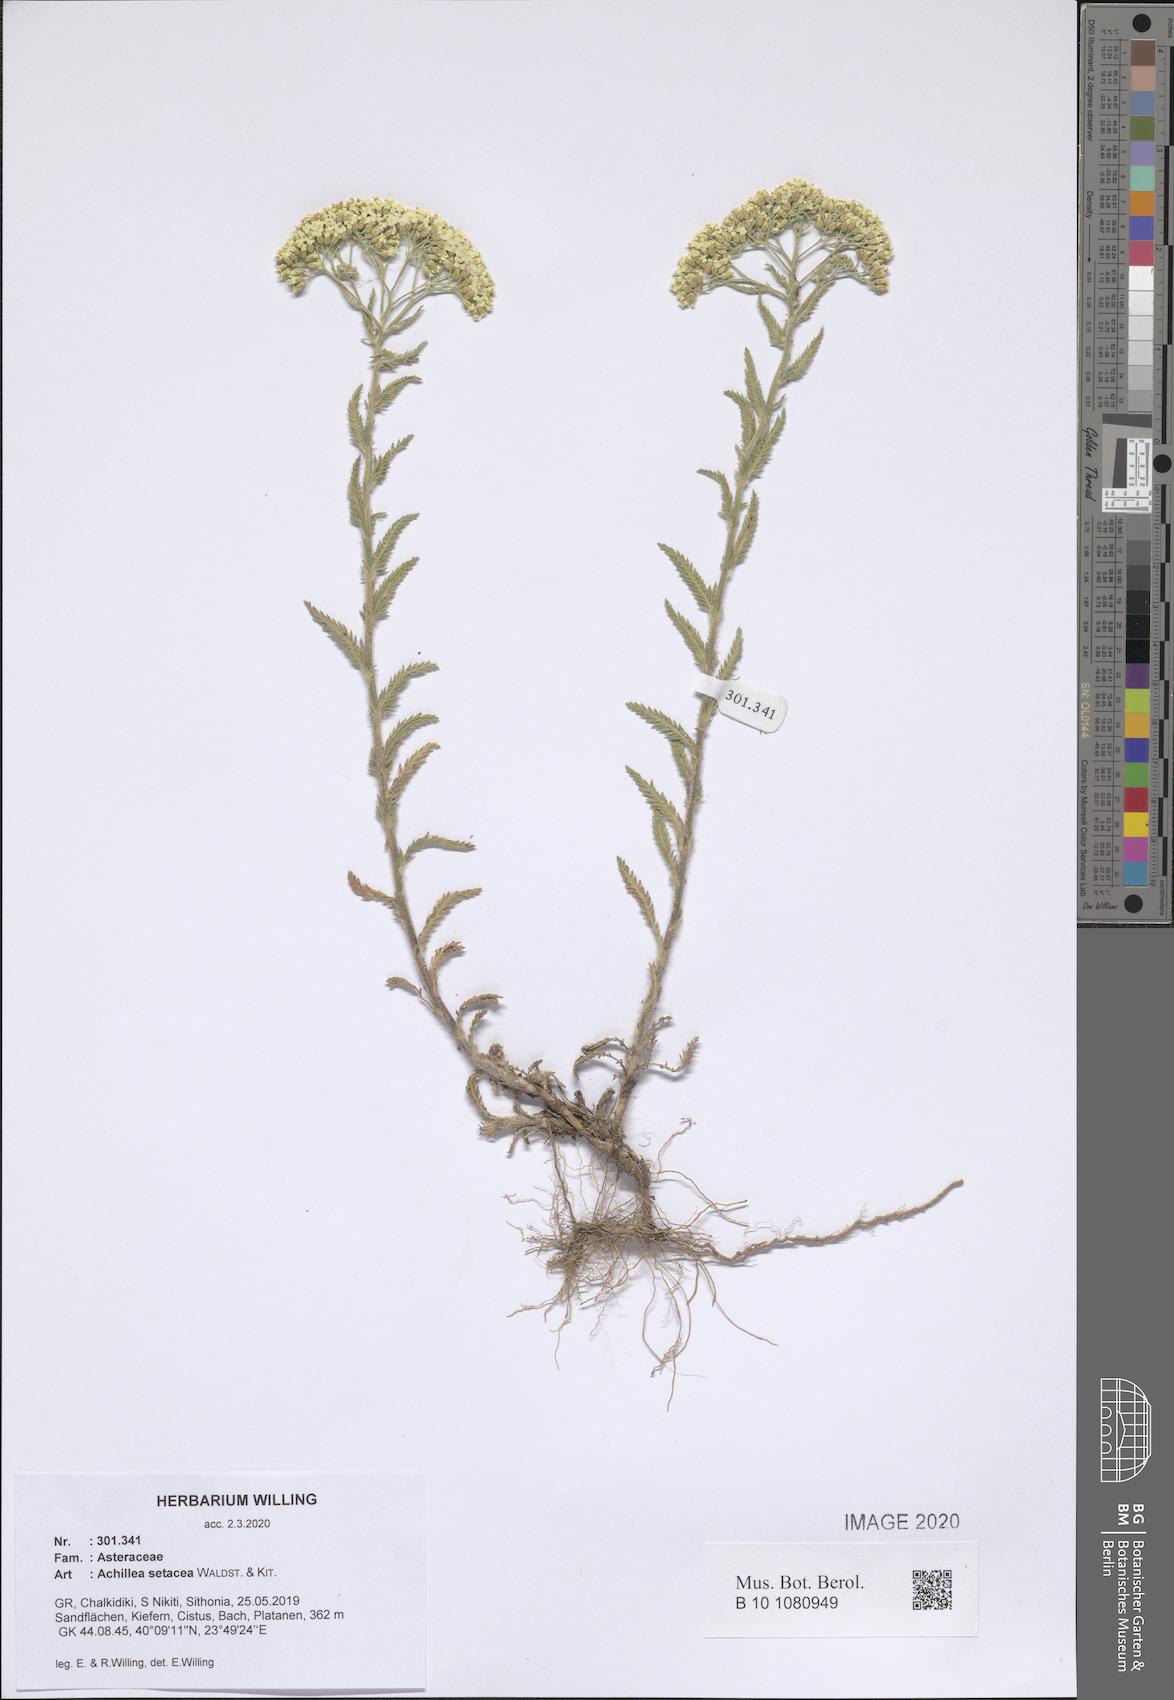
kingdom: Plantae
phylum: Tracheophyta
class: Magnoliopsida
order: Asterales
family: Asteraceae
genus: Achillea
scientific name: Achillea setacea
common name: Bristly yarrow
